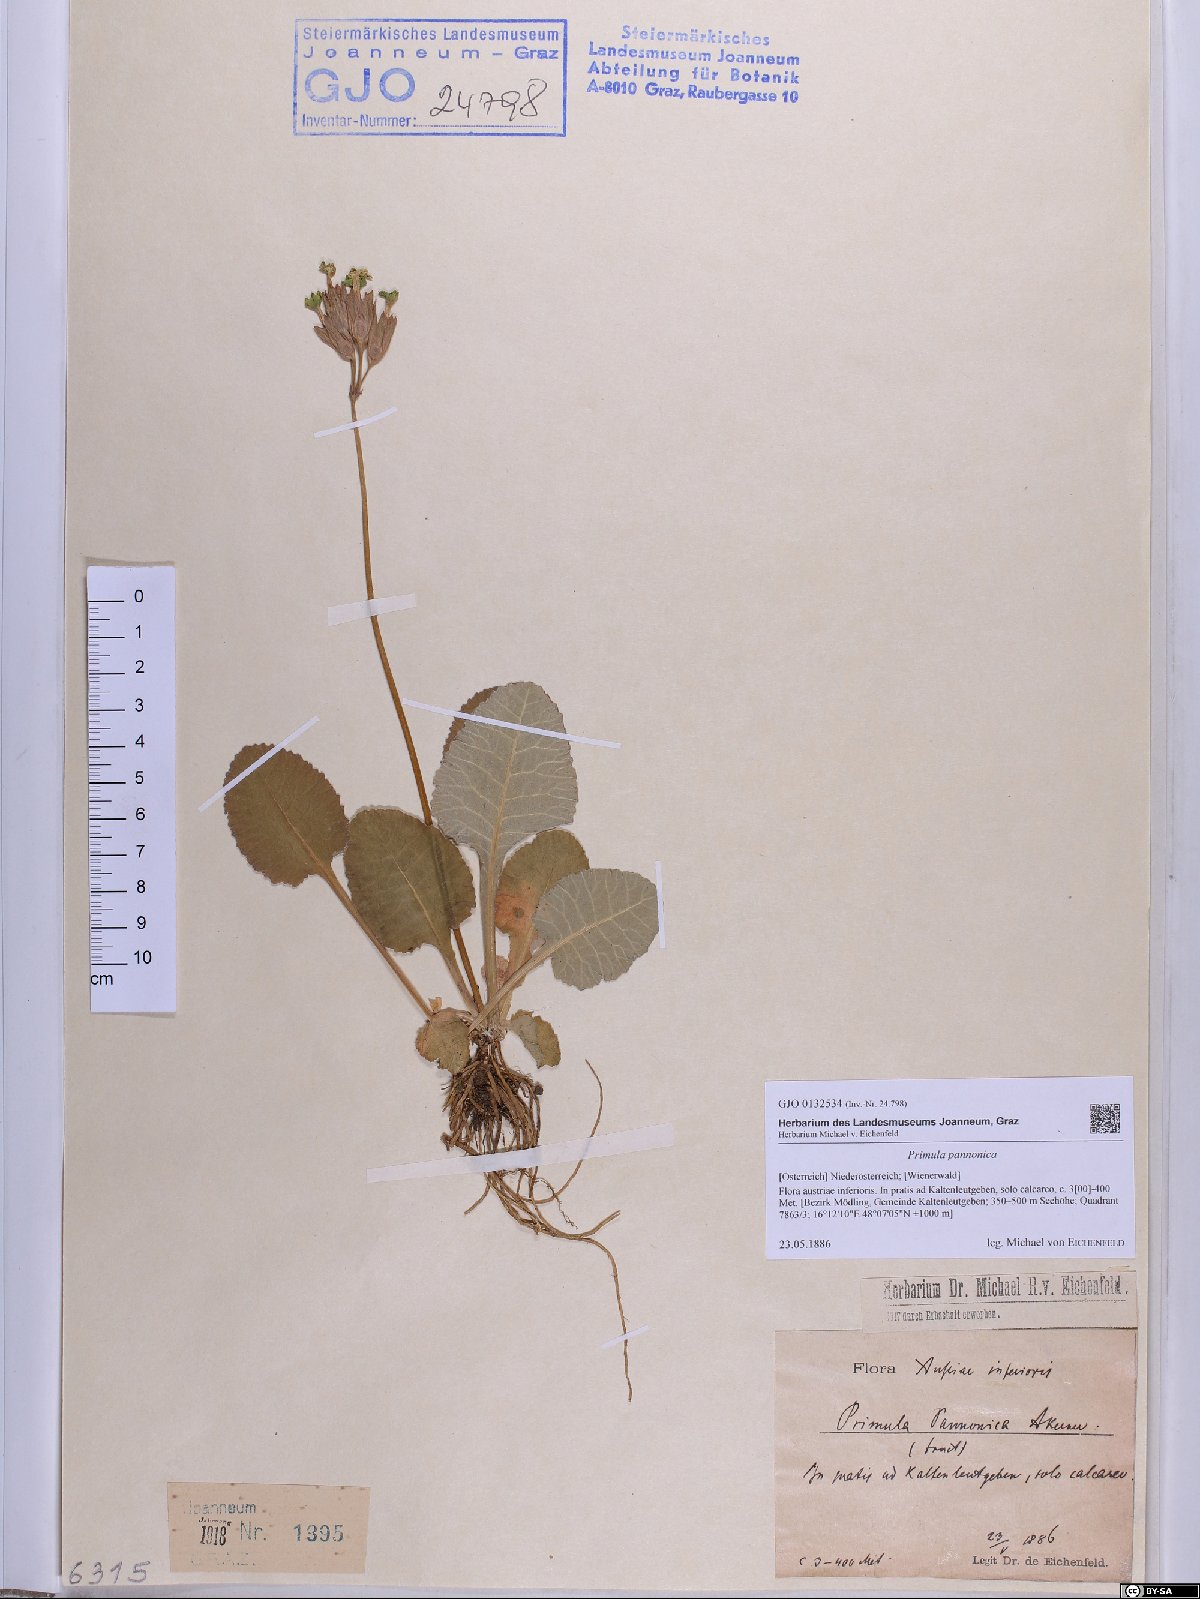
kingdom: Plantae
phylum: Tracheophyta
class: Magnoliopsida
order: Ericales
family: Primulaceae
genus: Primula
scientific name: Primula veris
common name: Cowslip
